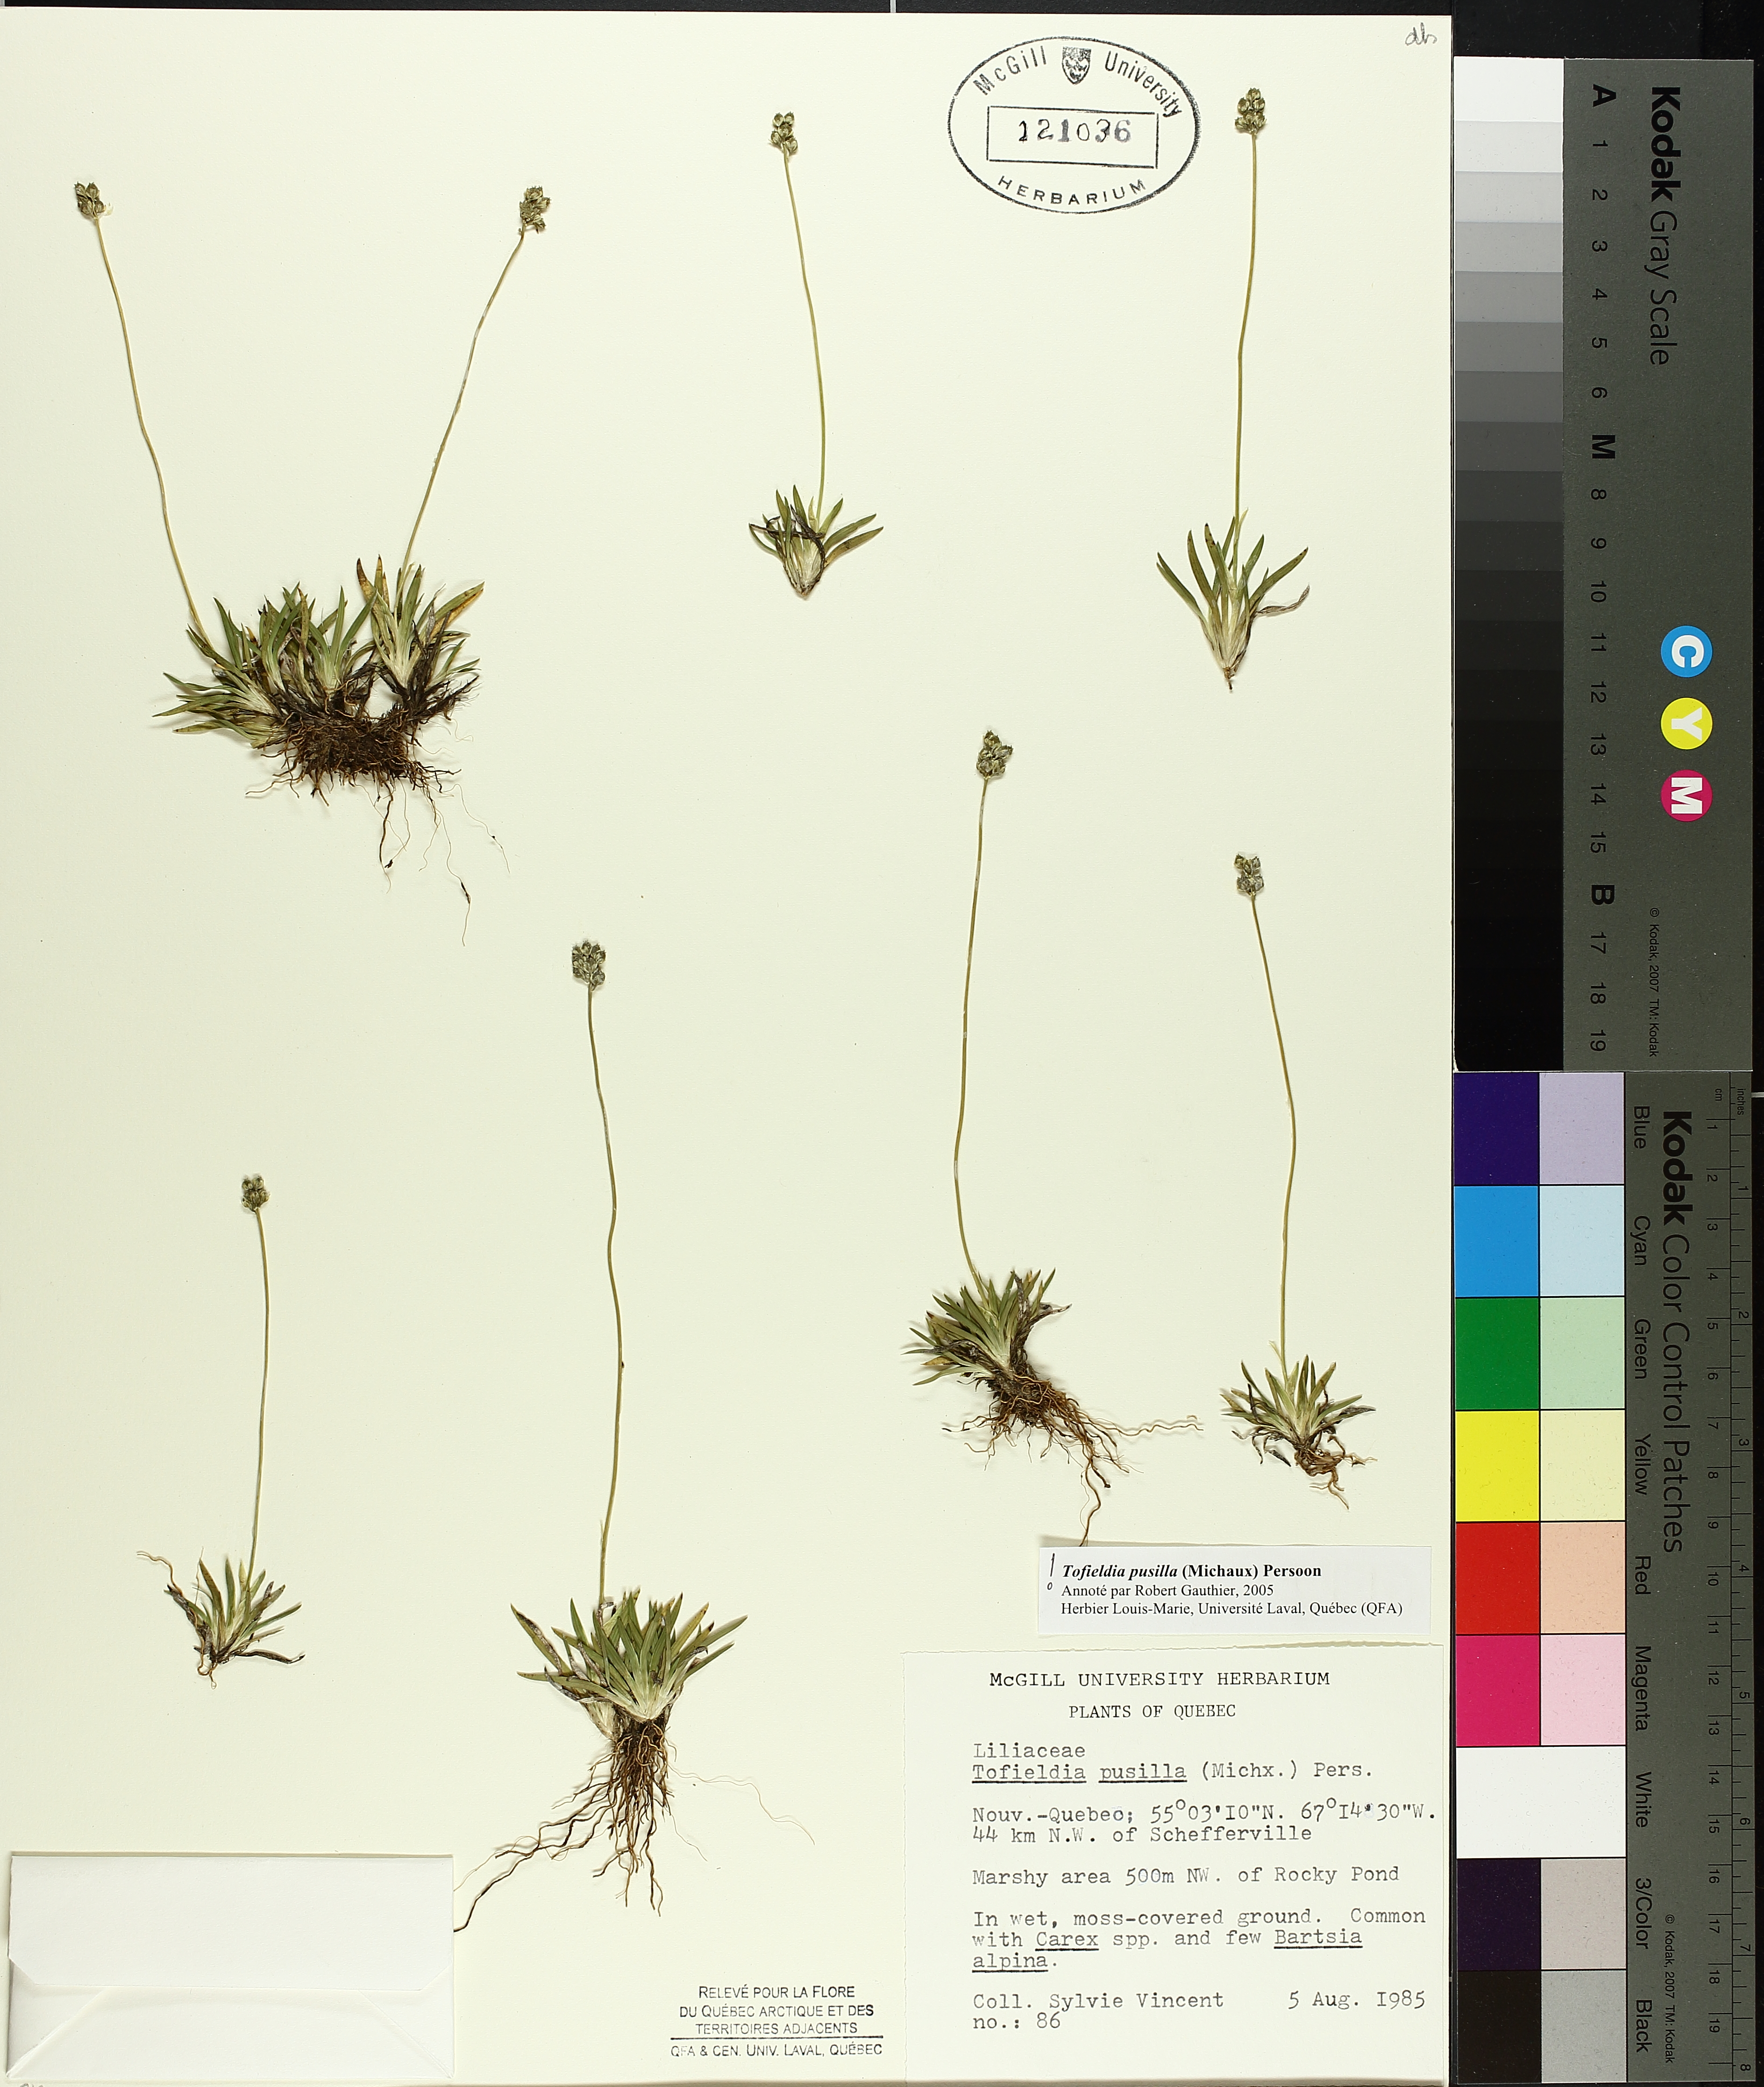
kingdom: Plantae
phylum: Tracheophyta
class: Liliopsida
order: Alismatales
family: Tofieldiaceae
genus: Tofieldia
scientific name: Tofieldia pusilla
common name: Scottish false asphodel
